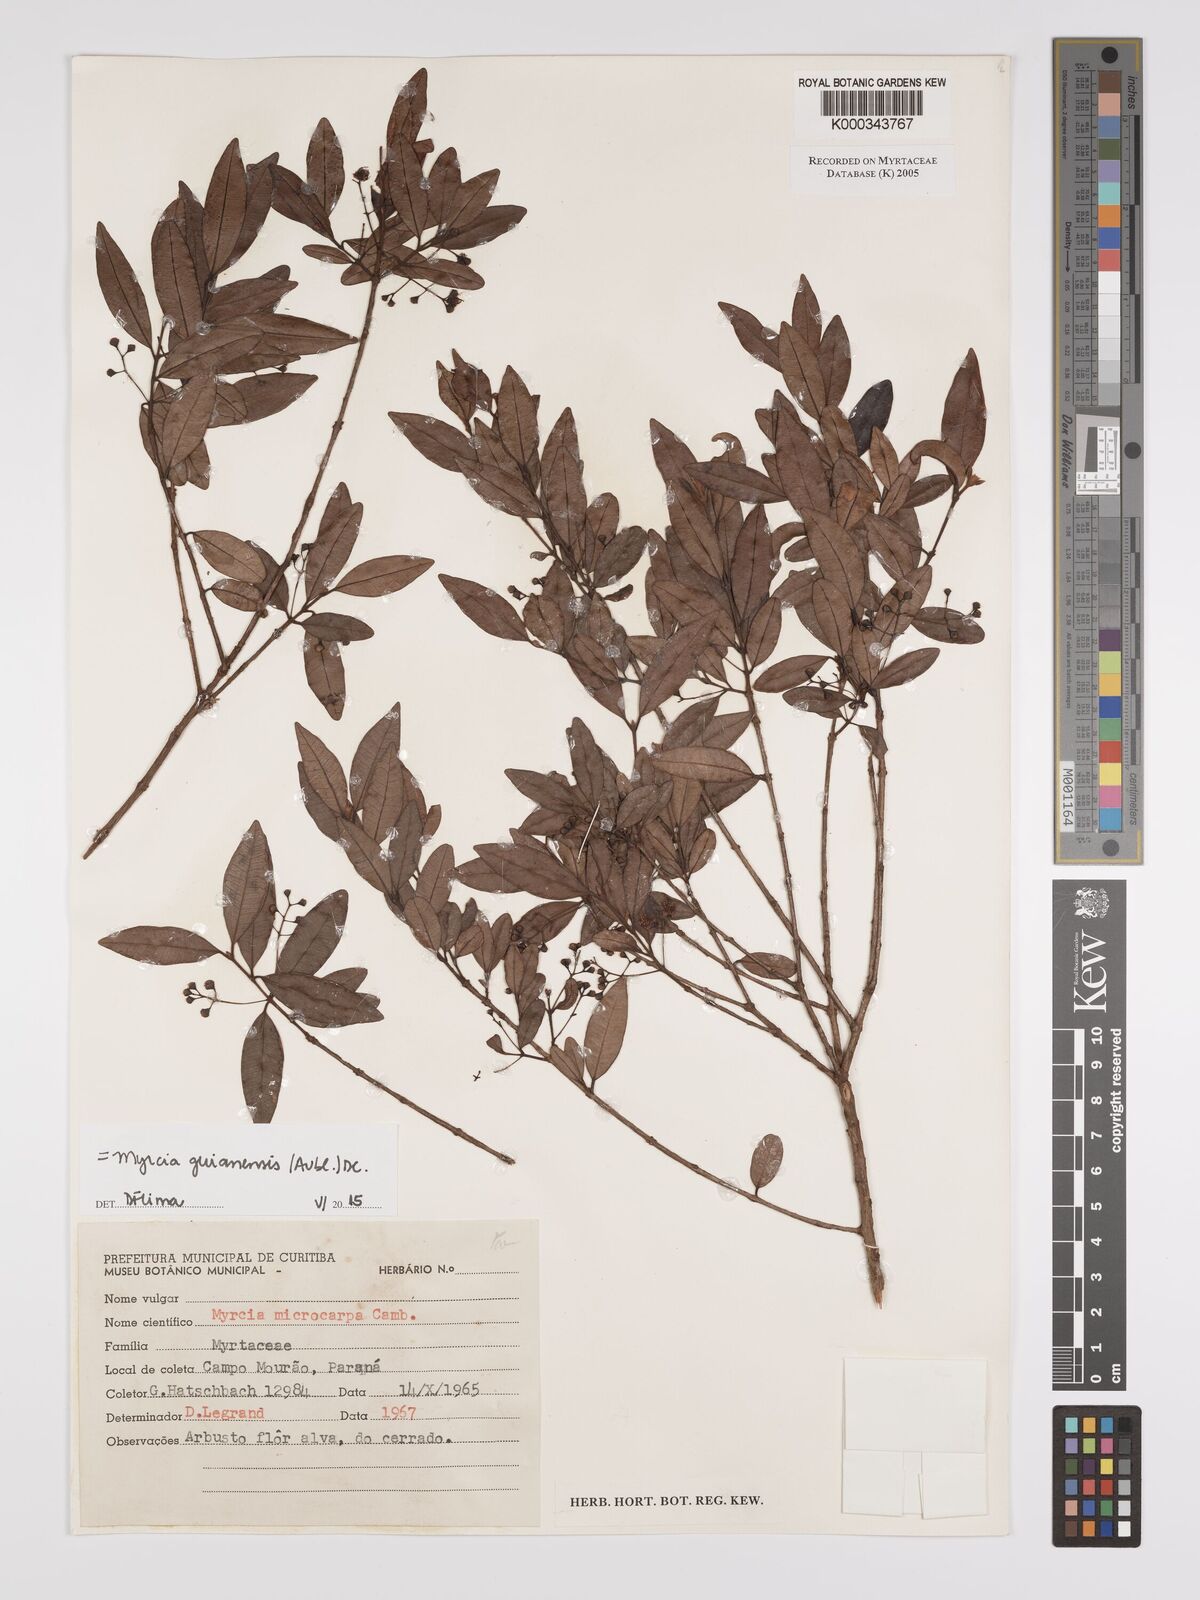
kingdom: Plantae
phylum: Tracheophyta
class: Magnoliopsida
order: Myrtales
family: Myrtaceae
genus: Myrcia
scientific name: Myrcia guianensis
